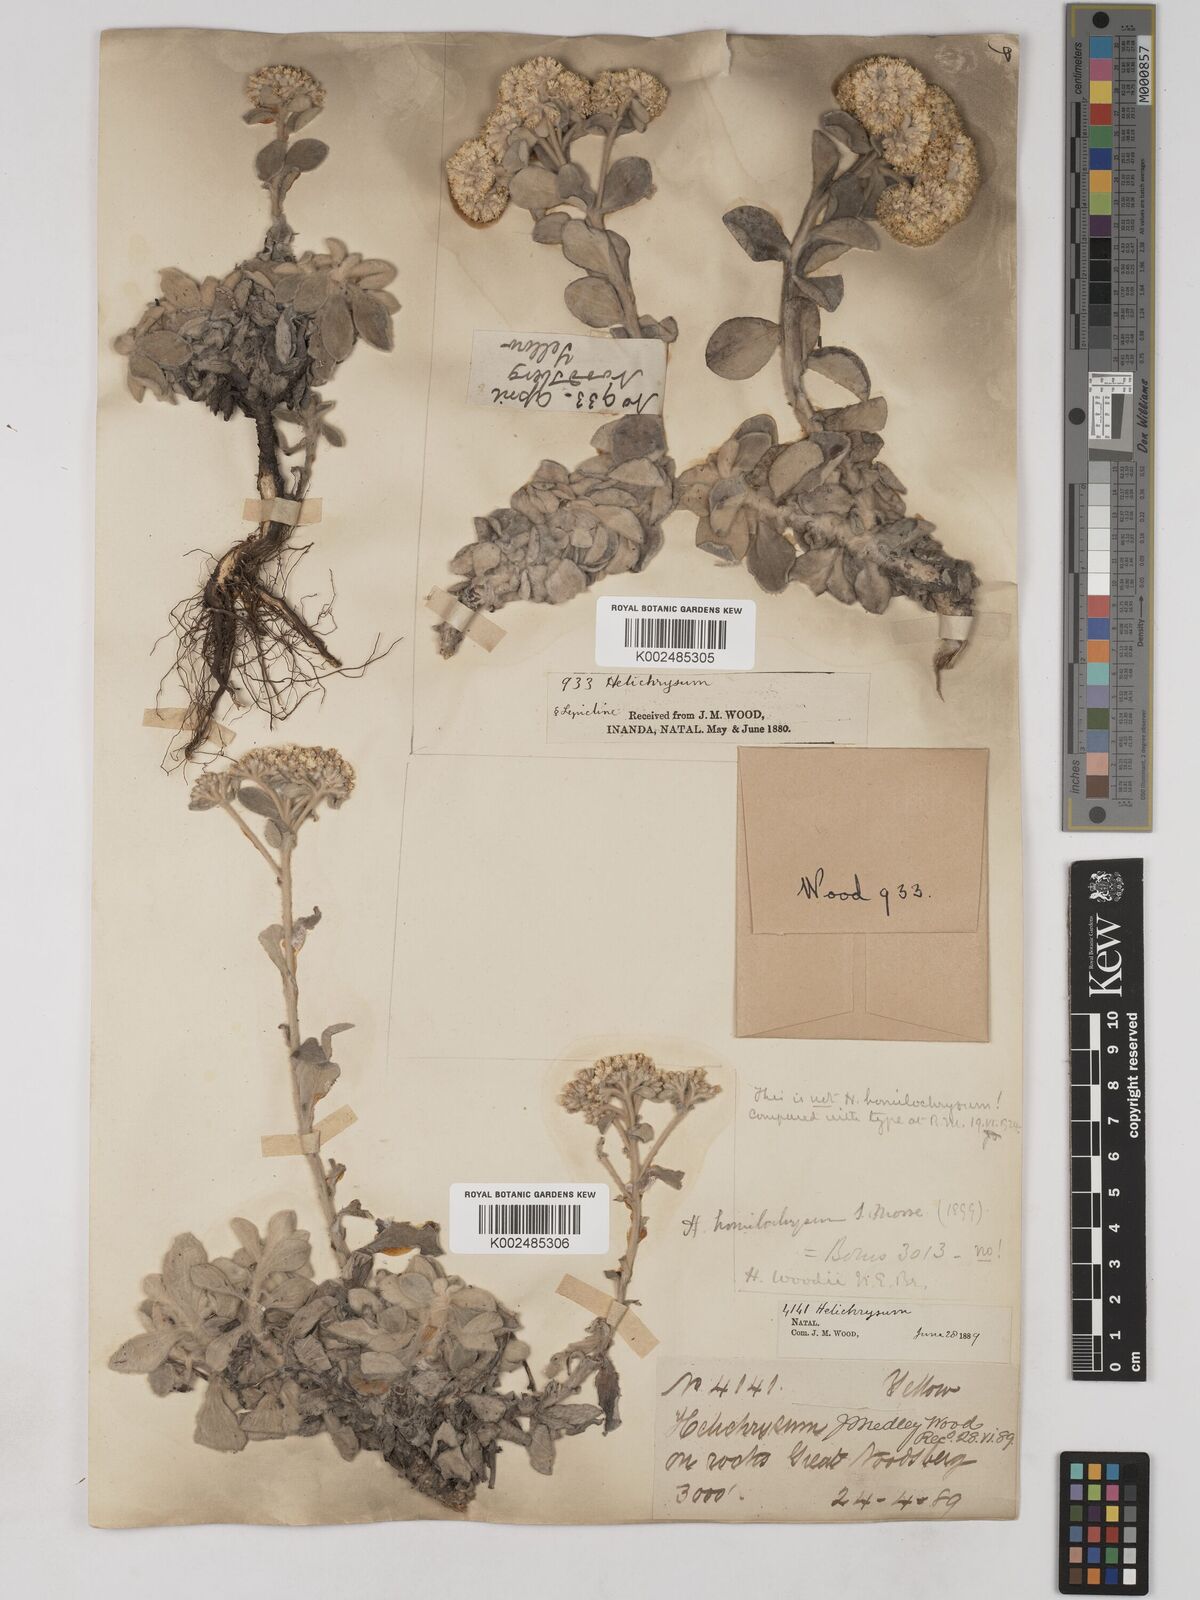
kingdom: Plantae
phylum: Tracheophyta
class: Magnoliopsida
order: Asterales
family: Asteraceae
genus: Helichrysum
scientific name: Helichrysum woodii
